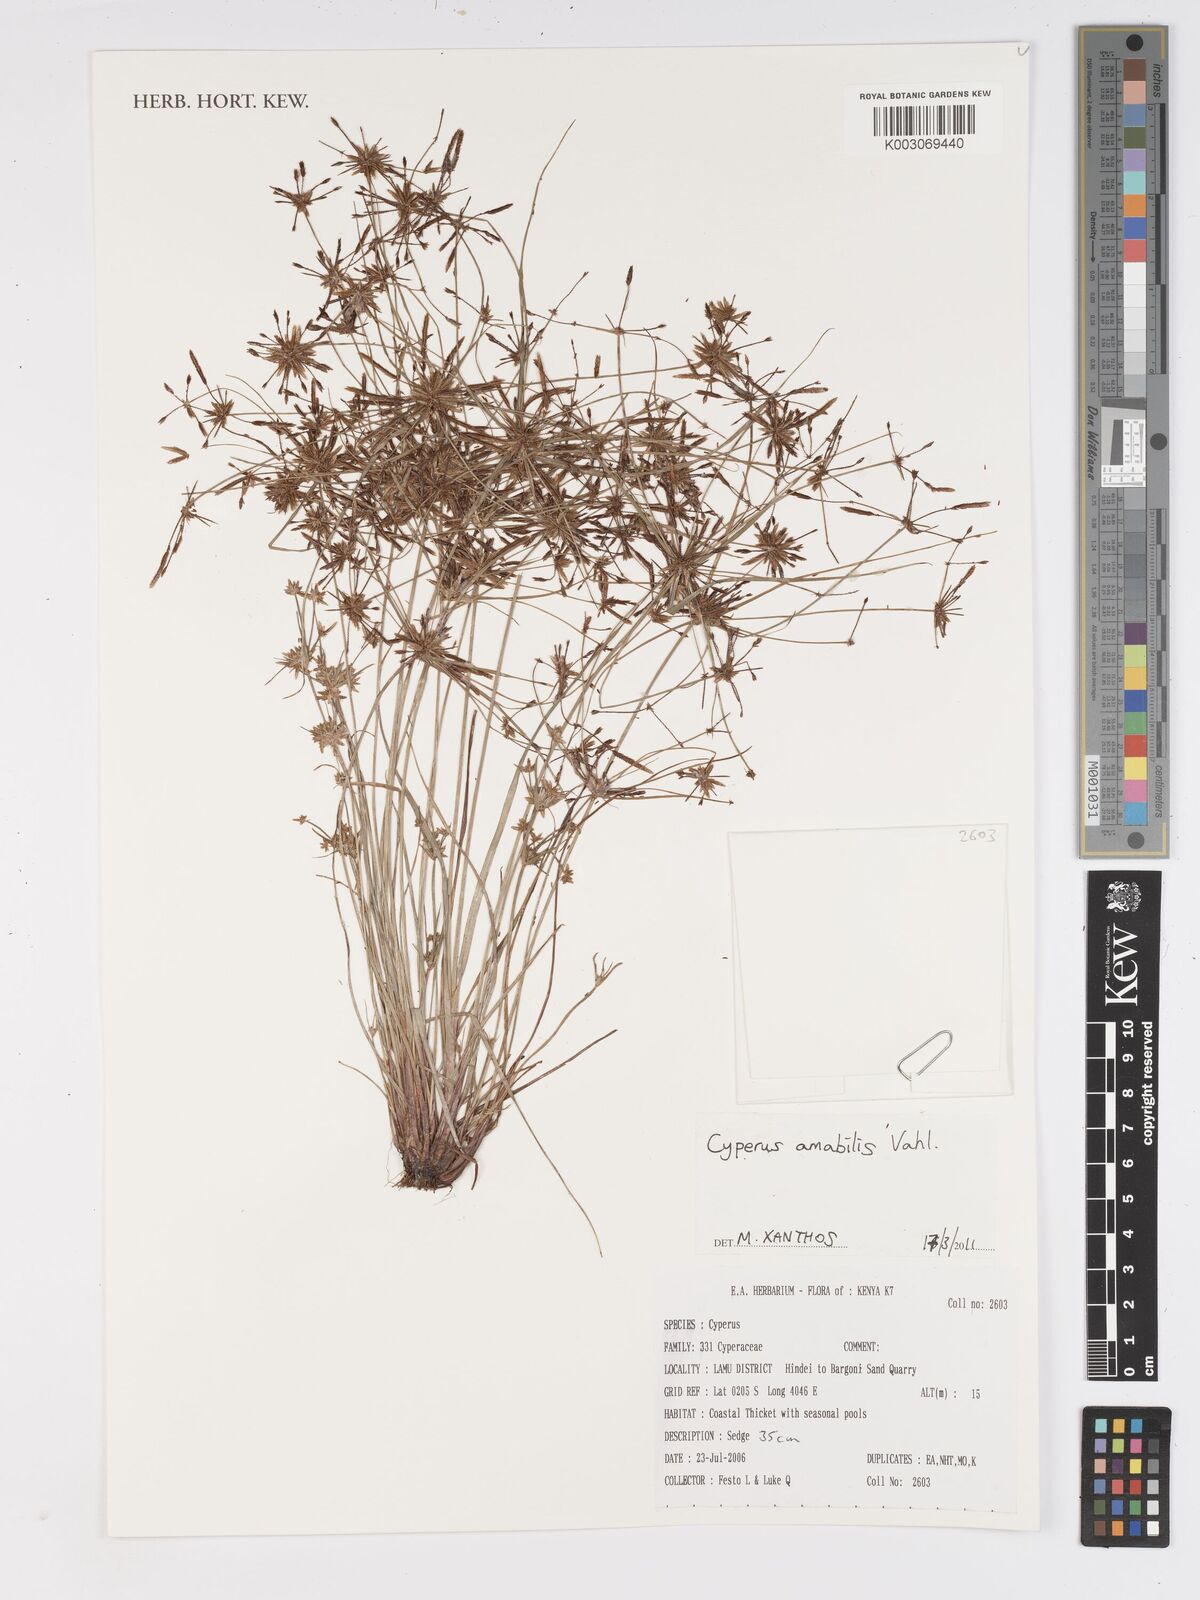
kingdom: Plantae
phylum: Tracheophyta
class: Liliopsida
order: Poales
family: Cyperaceae
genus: Cyperus
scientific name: Cyperus amabilis
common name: Foothill flat sedge
